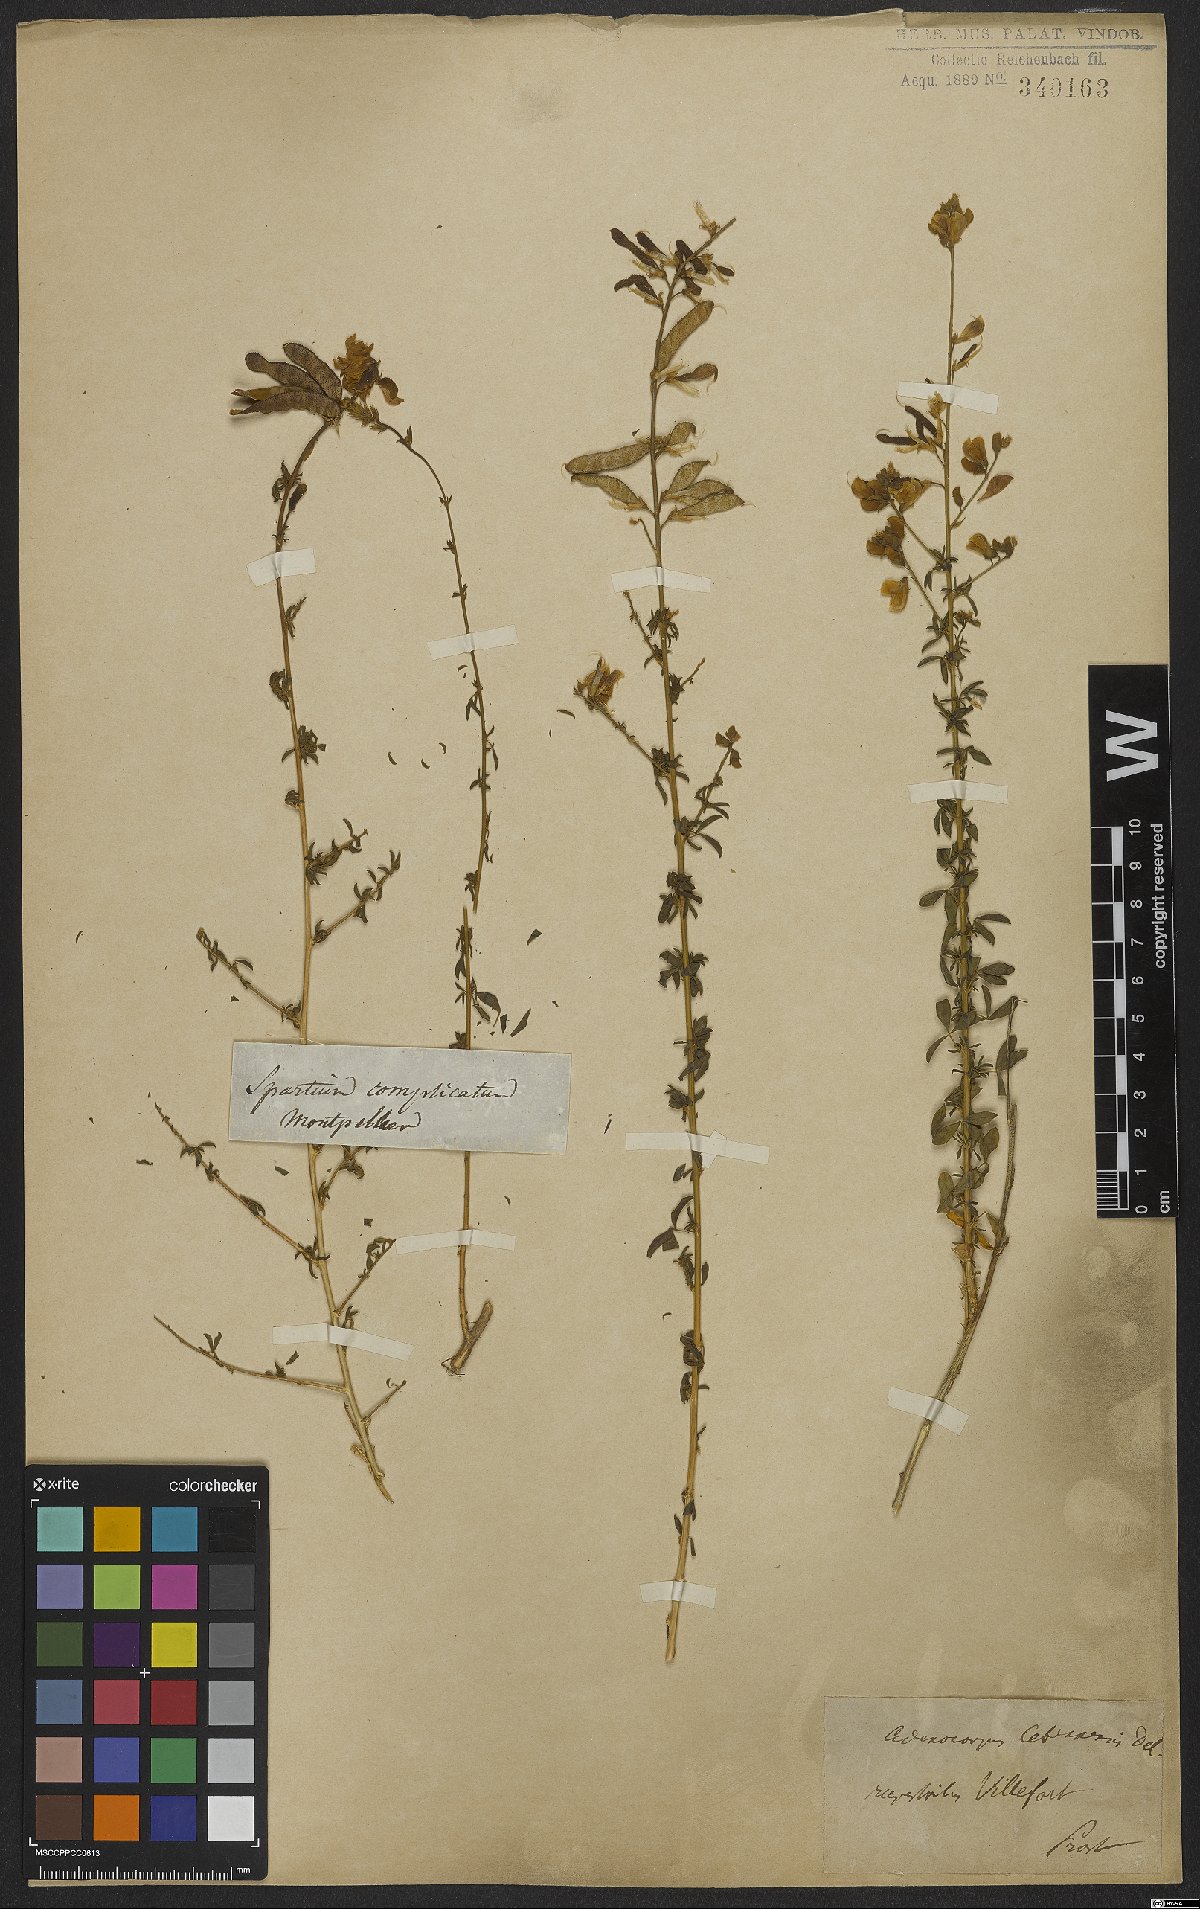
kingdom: Plantae
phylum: Tracheophyta
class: Magnoliopsida
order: Fabales
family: Fabaceae
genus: Adenocarpus
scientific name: Adenocarpus complicatus
